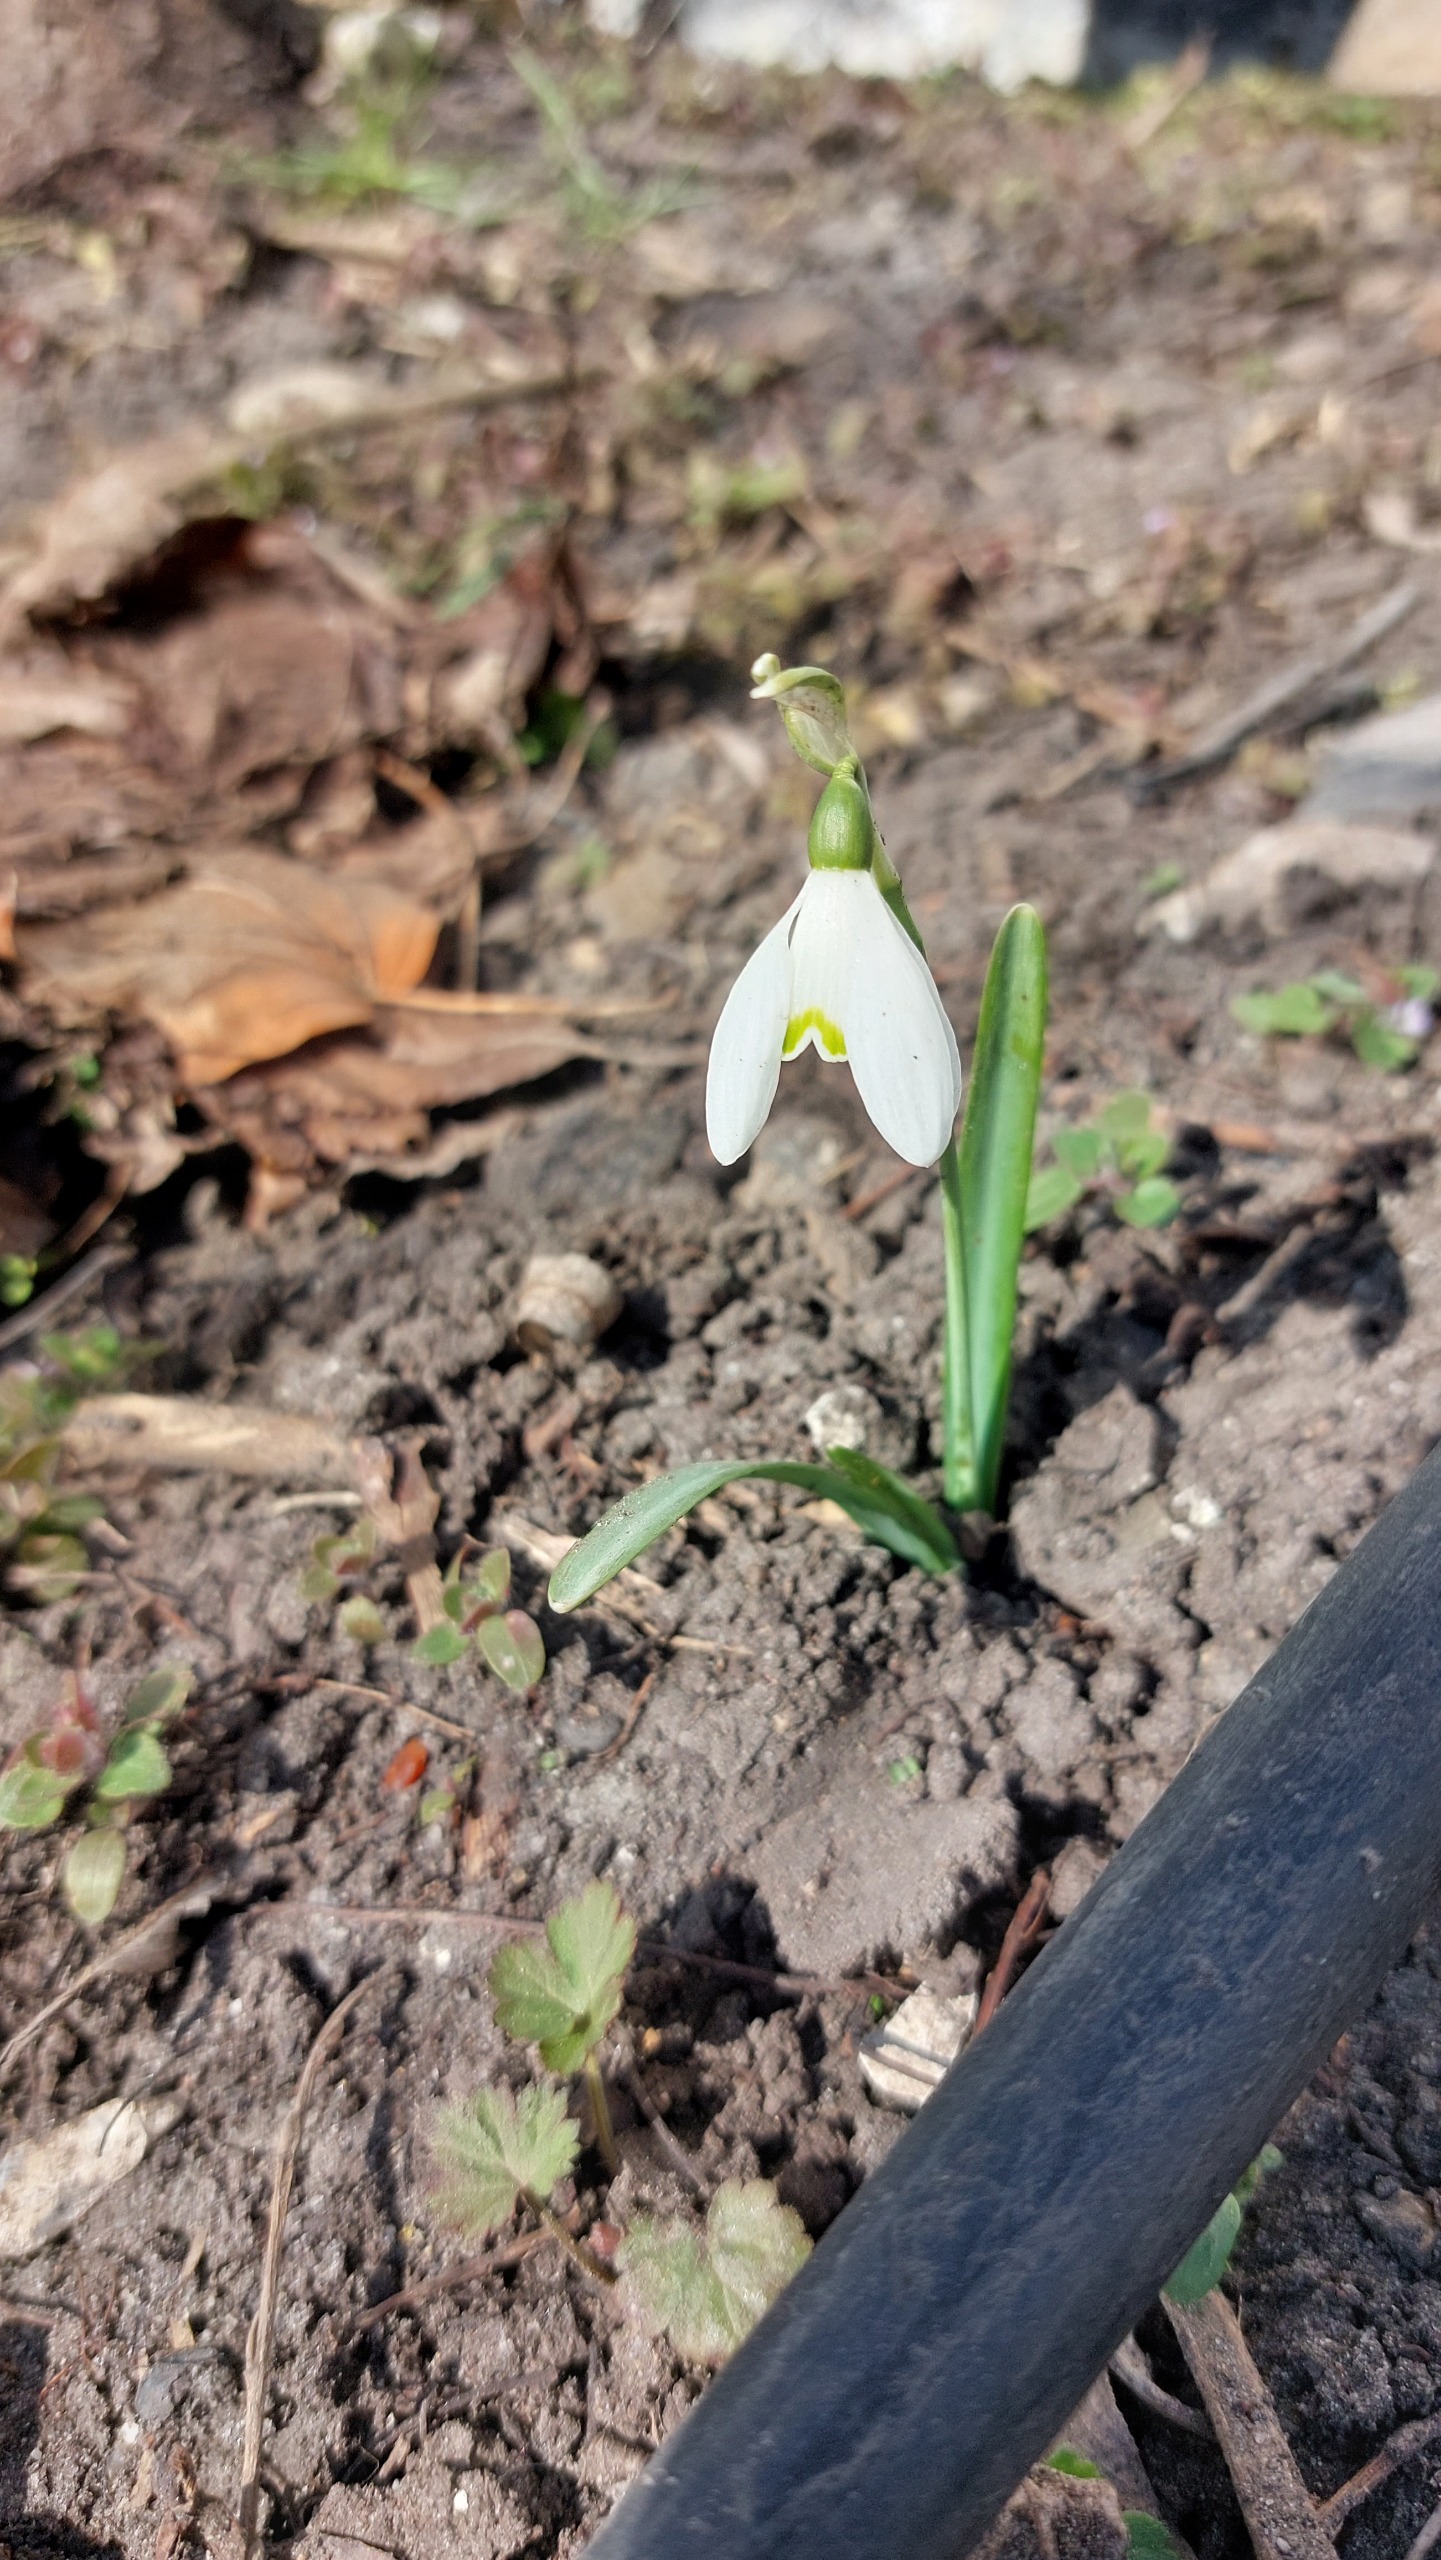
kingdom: Plantae
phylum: Tracheophyta
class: Liliopsida
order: Asparagales
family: Amaryllidaceae
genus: Galanthus
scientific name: Galanthus nivalis
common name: Vintergæk
